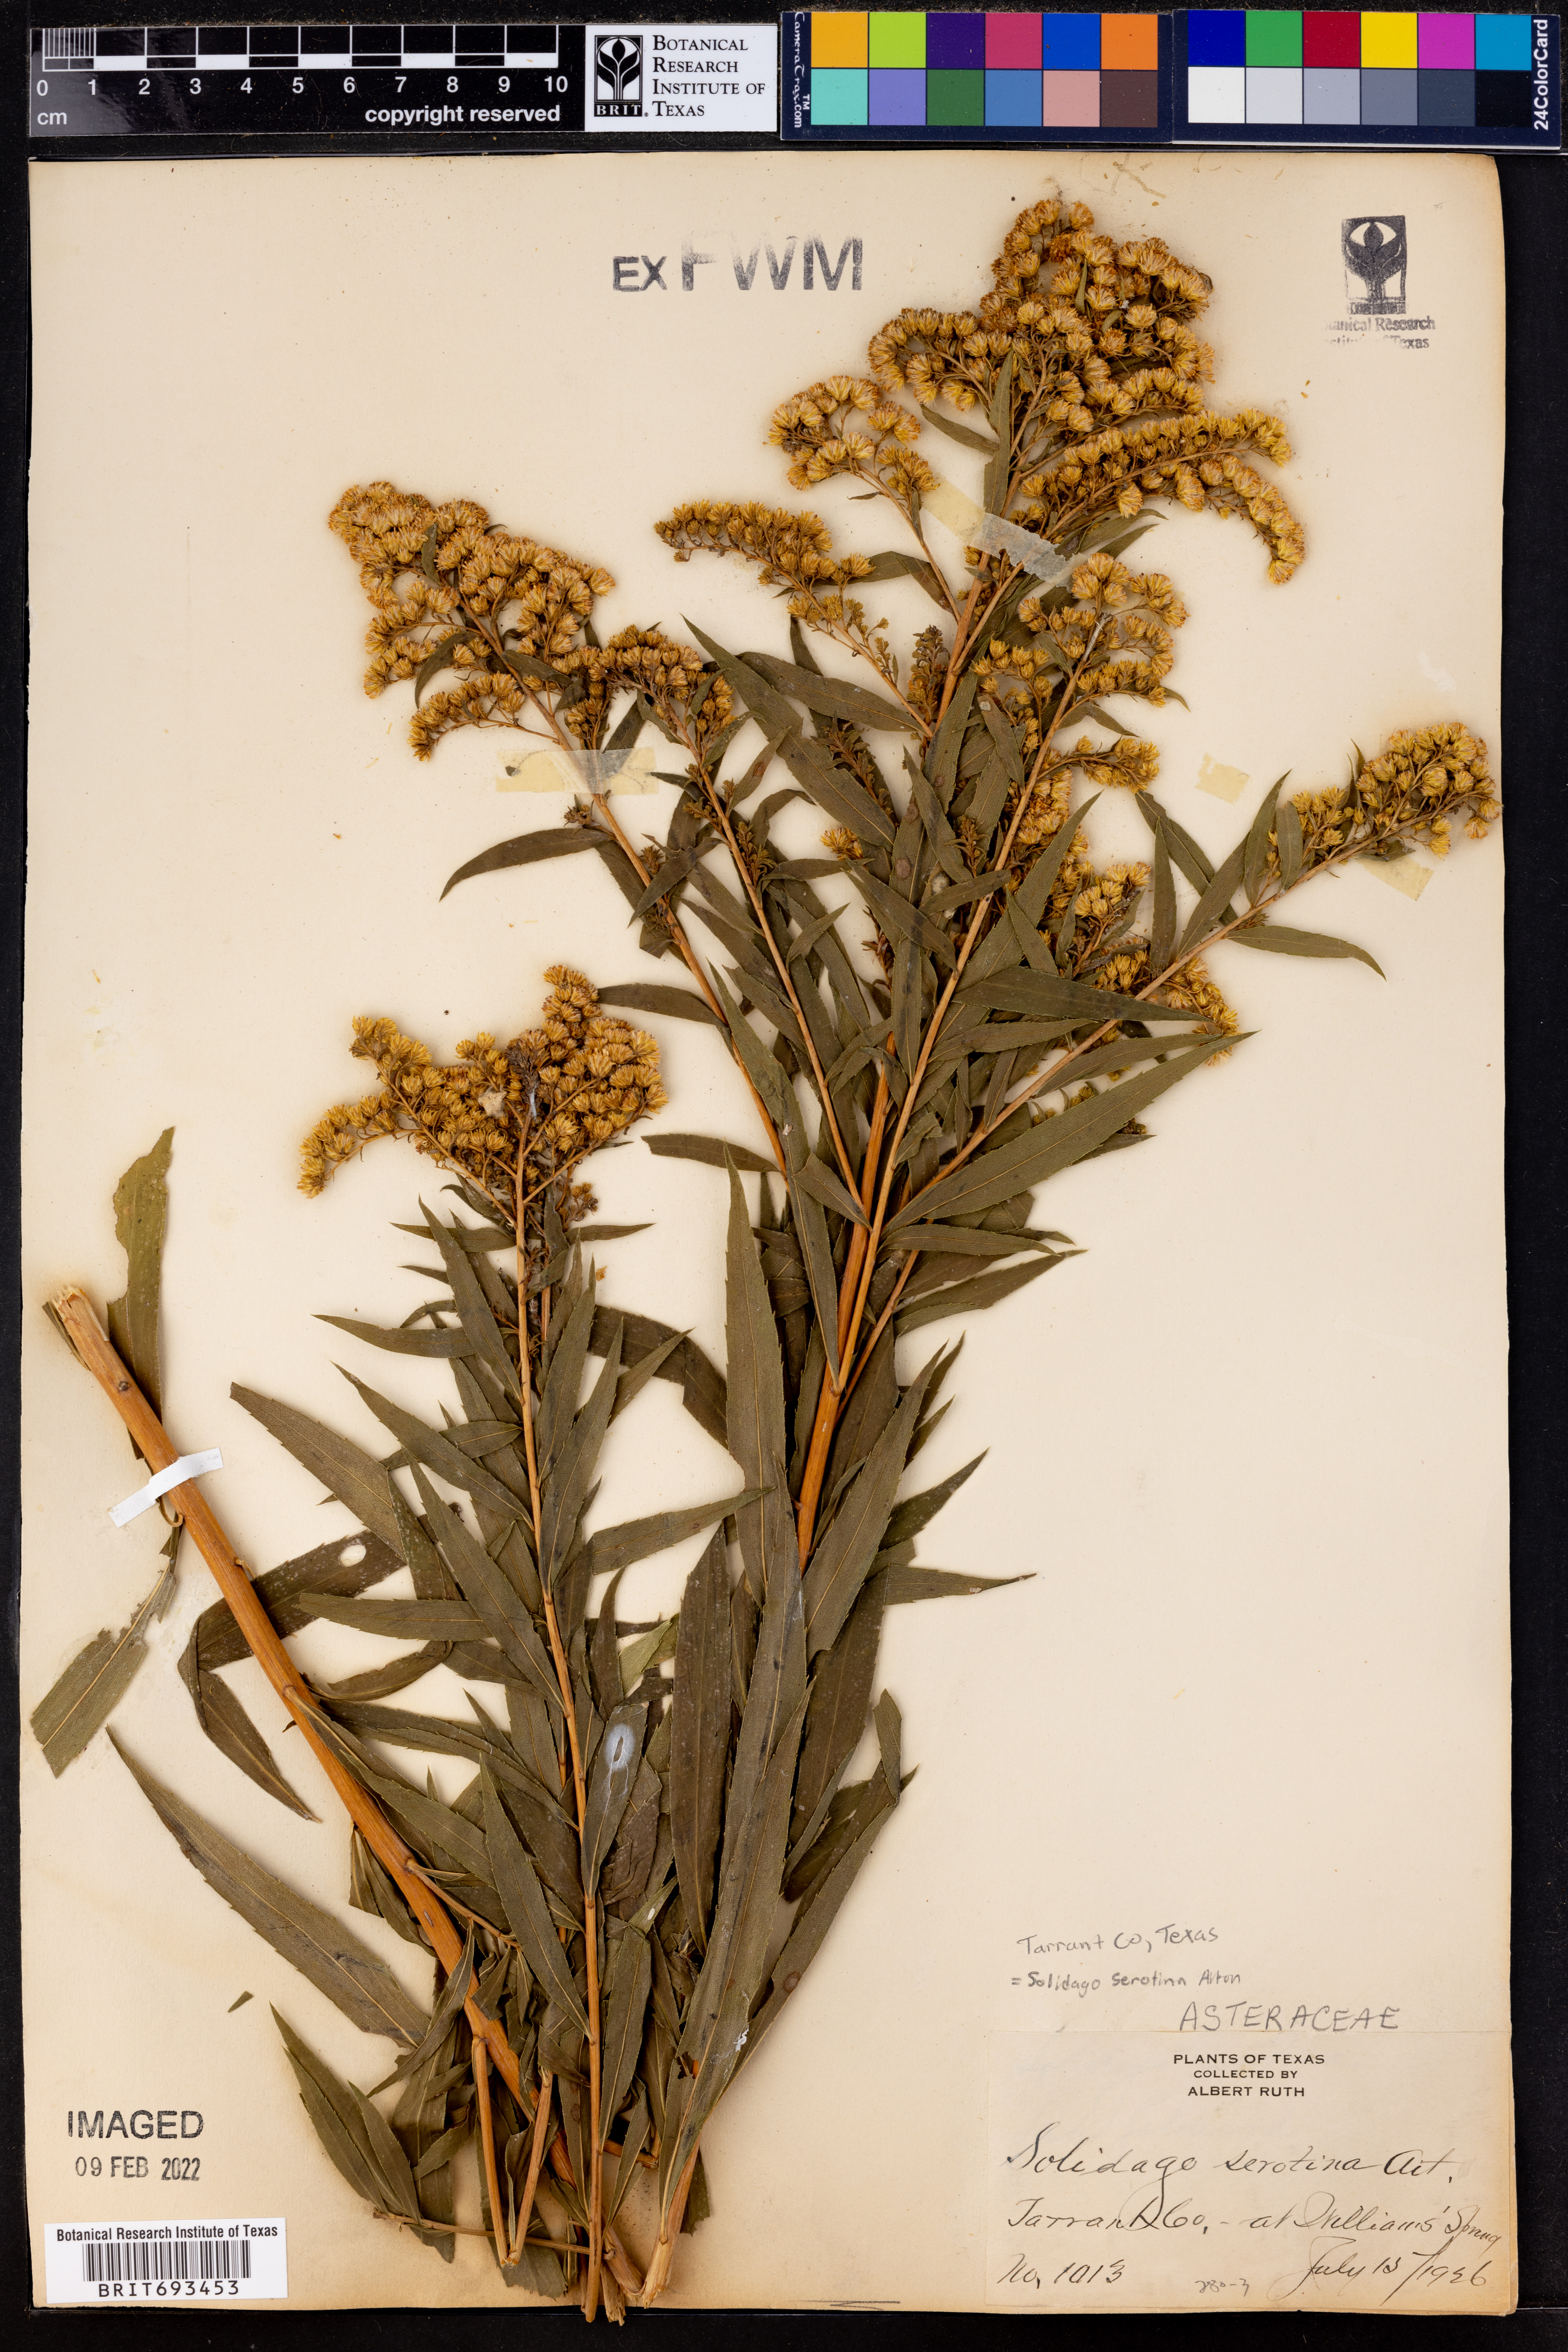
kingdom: Plantae
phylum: Tracheophyta
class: Magnoliopsida
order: Asterales
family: Asteraceae
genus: Solidago
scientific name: Solidago gigantea
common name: Giant goldenrod
